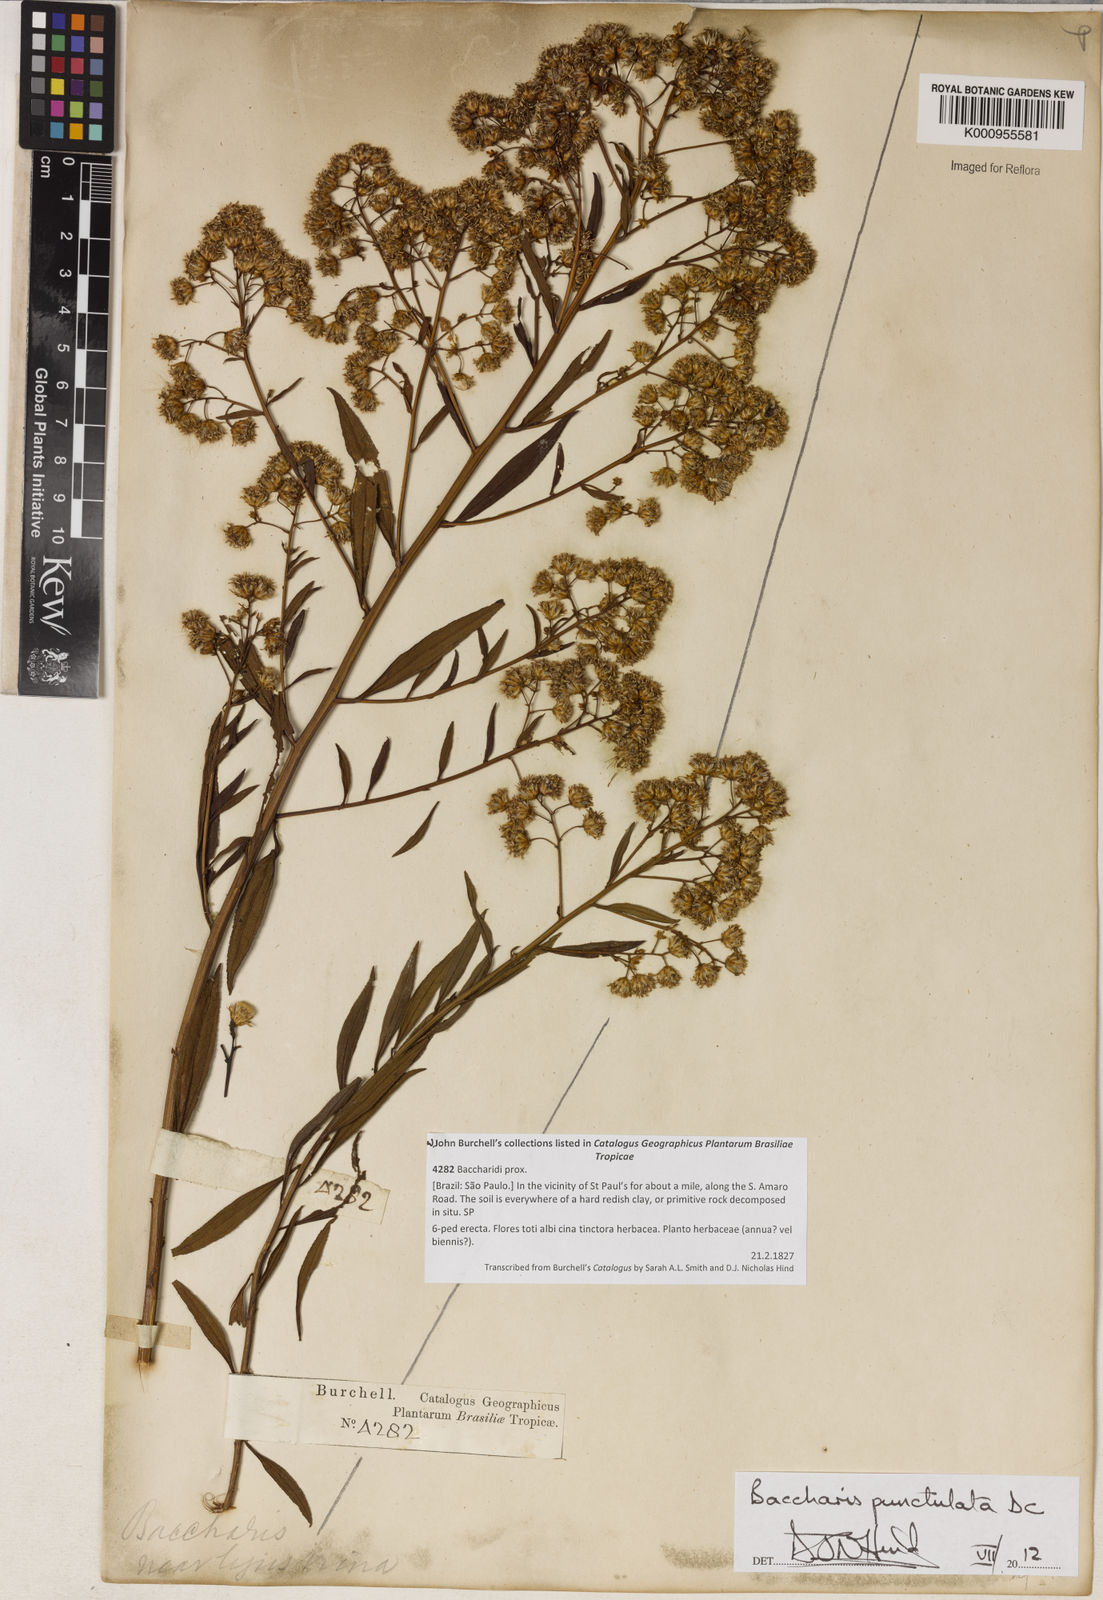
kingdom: Plantae
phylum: Tracheophyta
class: Magnoliopsida
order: Asterales
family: Asteraceae
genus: Baccharis
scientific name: Baccharis punctulata
